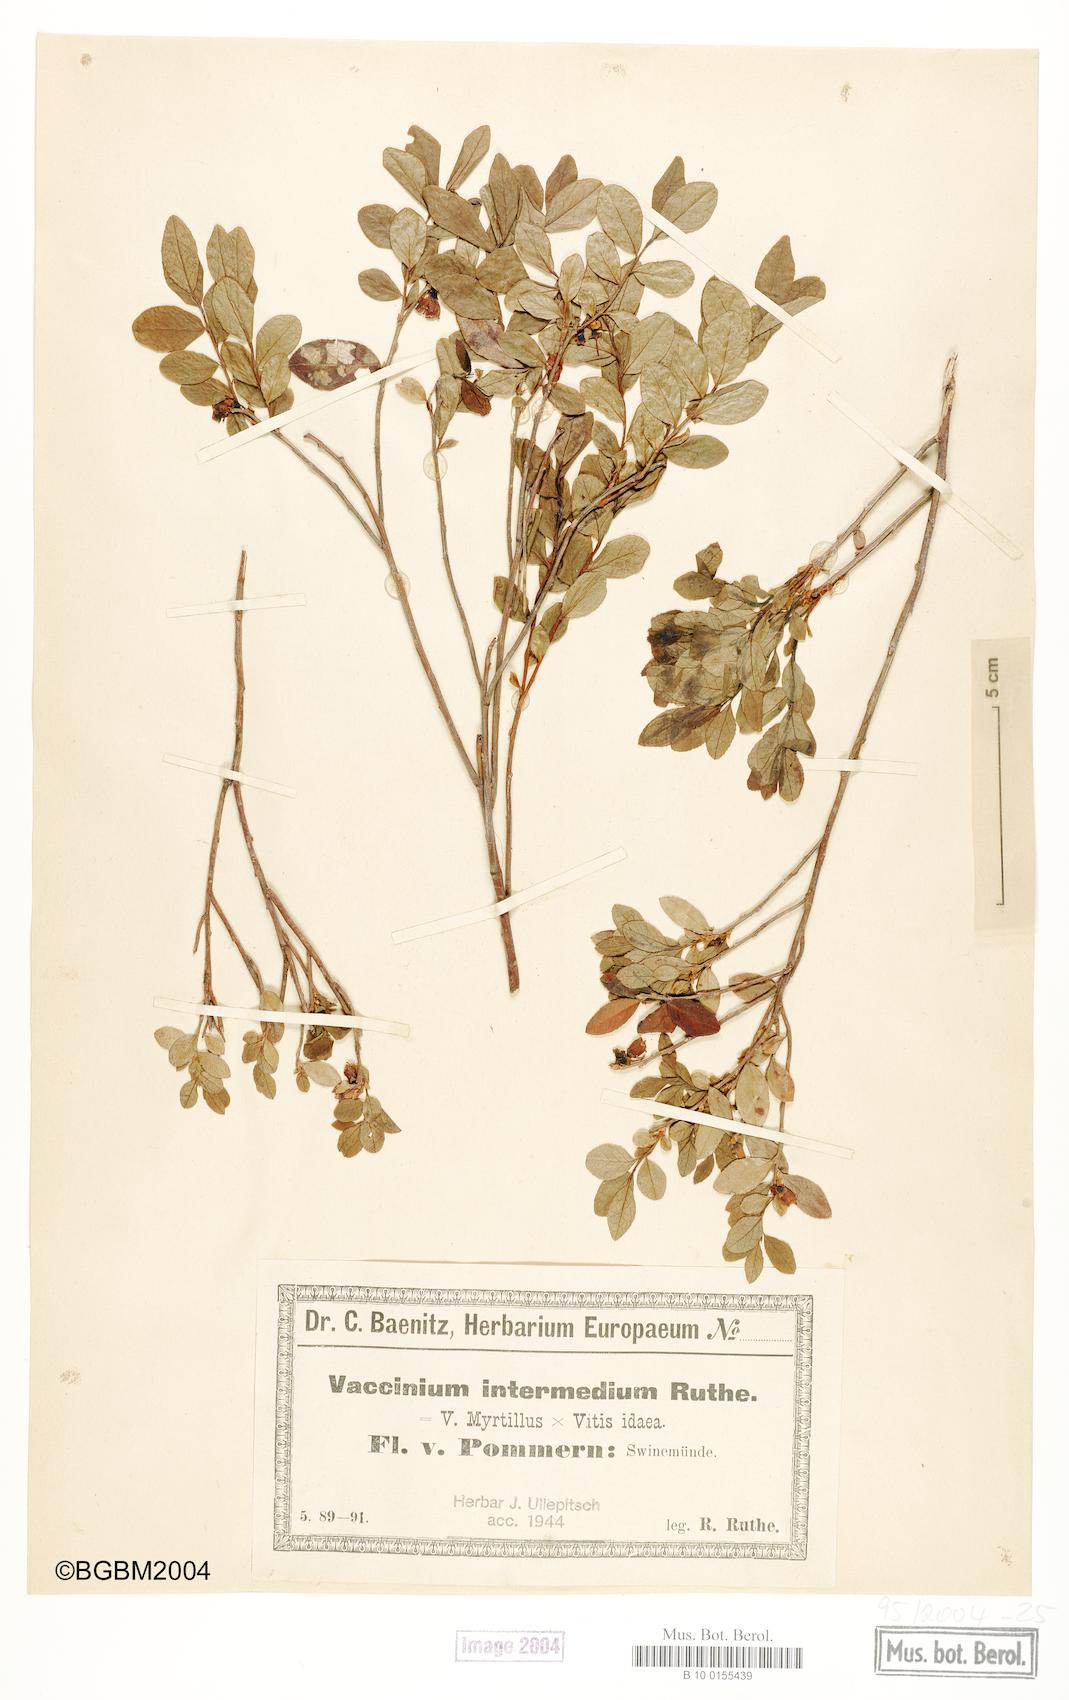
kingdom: Plantae
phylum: Tracheophyta
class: Magnoliopsida
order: Ericales
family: Ericaceae
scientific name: Ericaceae
